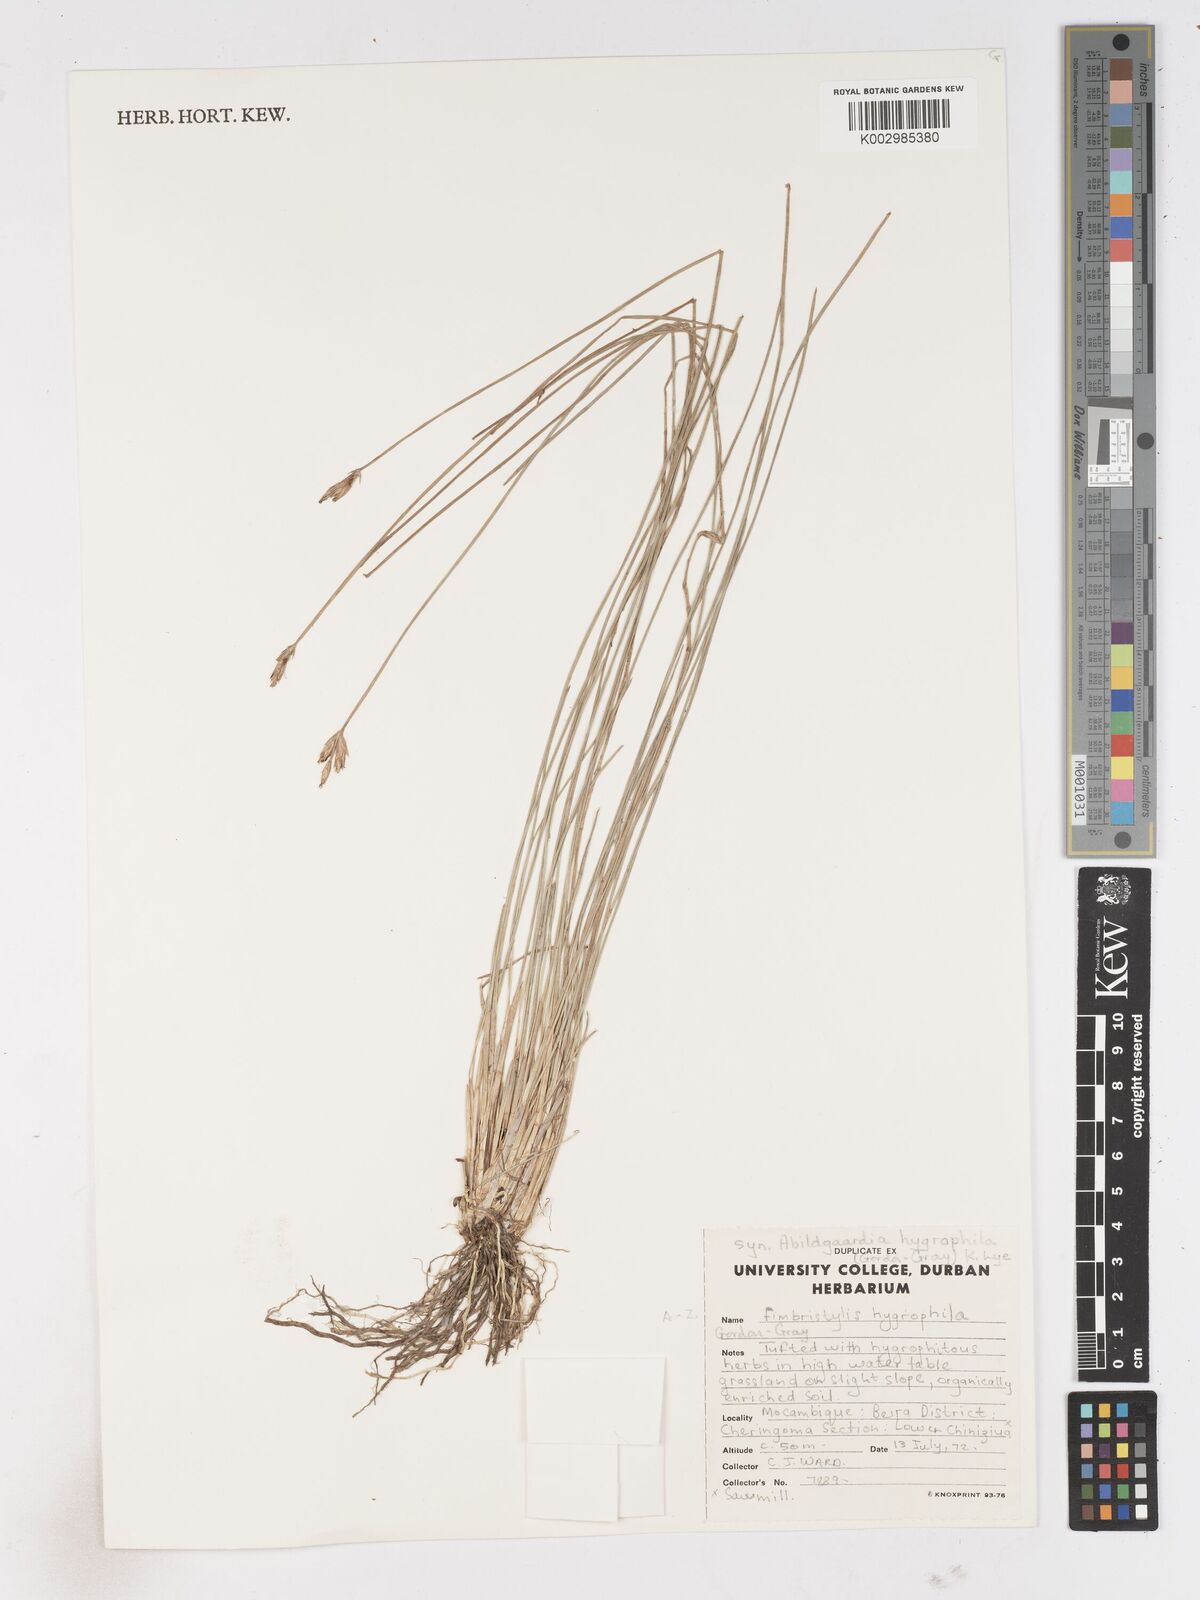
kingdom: Plantae
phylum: Tracheophyta
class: Liliopsida
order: Poales
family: Cyperaceae
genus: Zulustylis
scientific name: Zulustylis hygrophila
